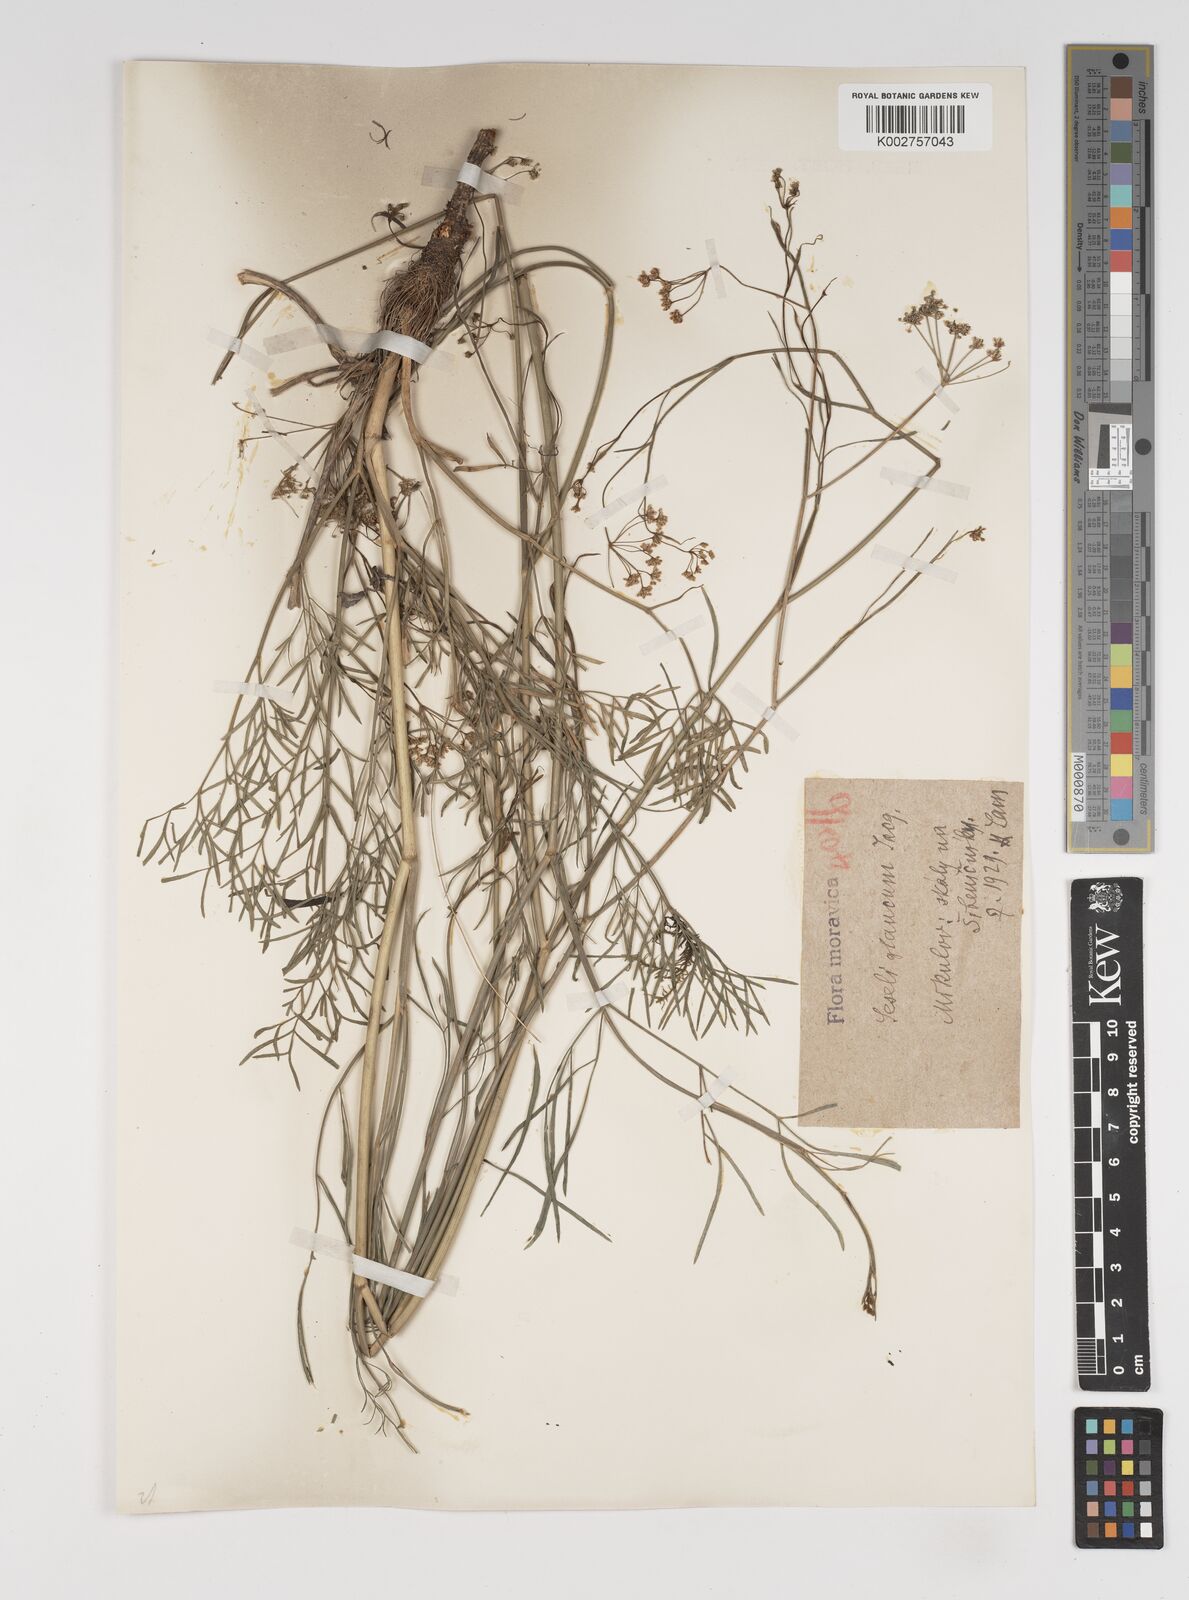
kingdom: Plantae
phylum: Tracheophyta
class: Magnoliopsida
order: Apiales
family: Apiaceae
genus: Seseli
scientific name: Seseli montanum
